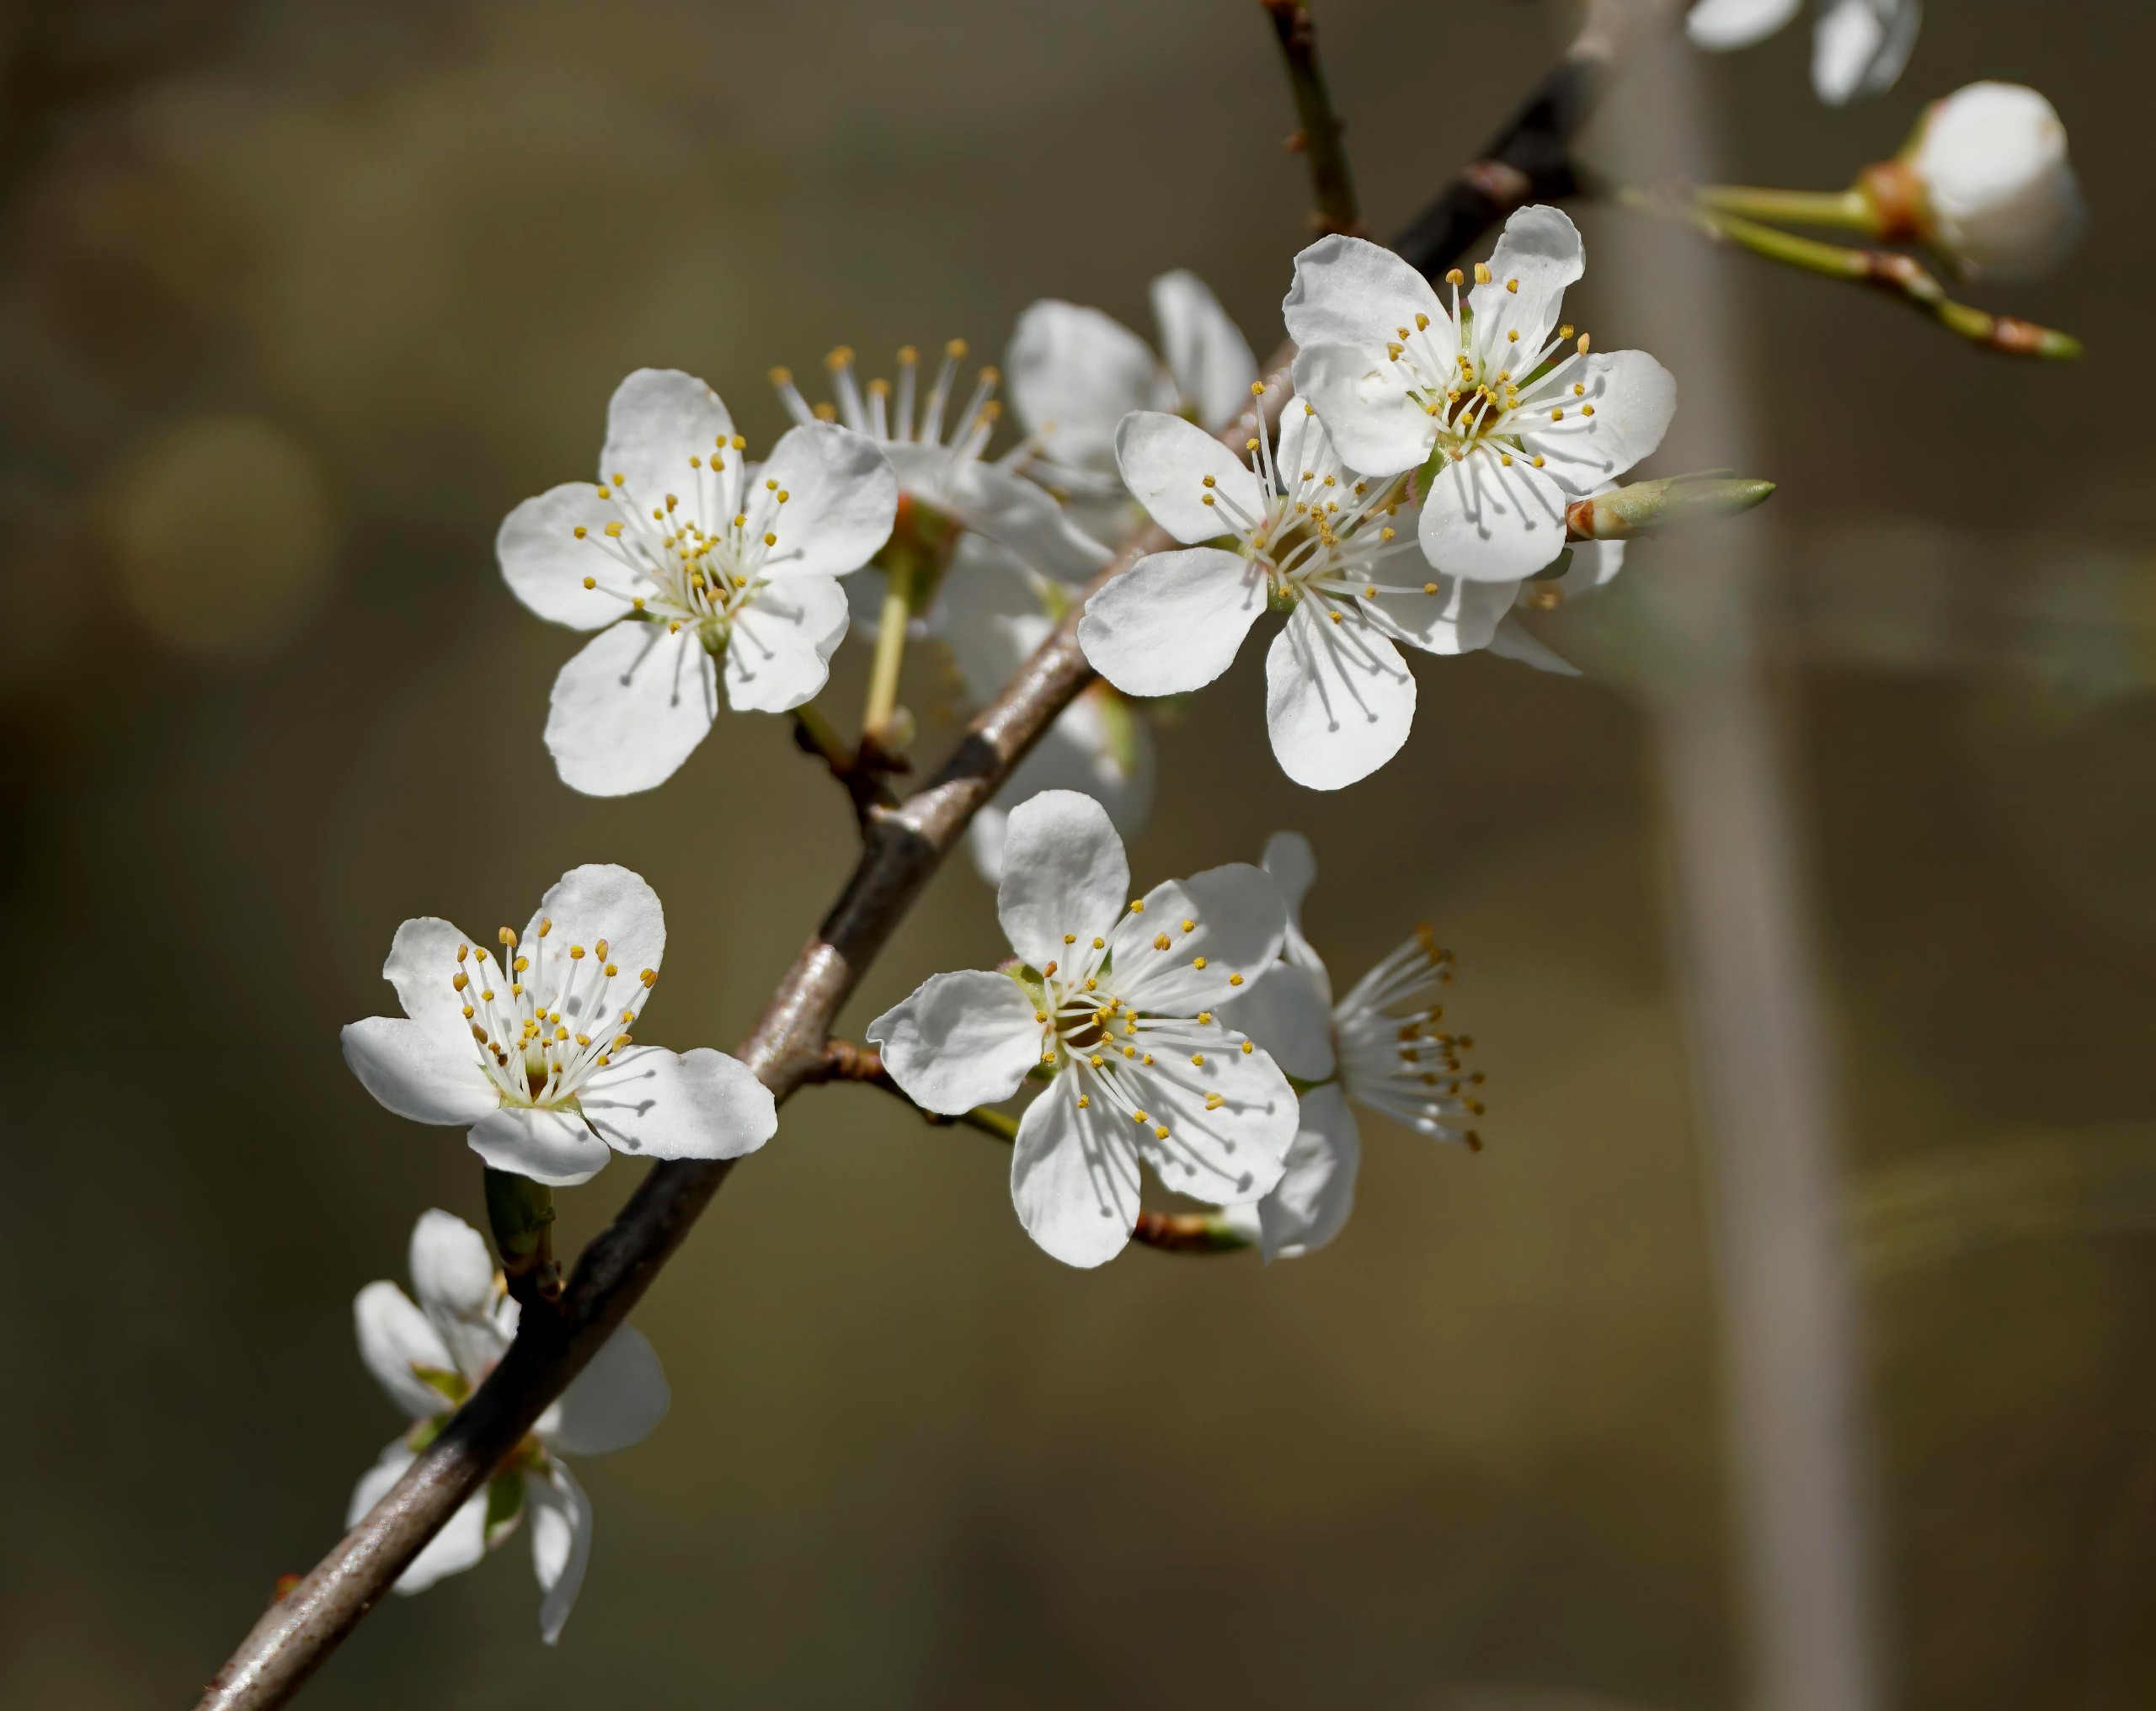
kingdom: Plantae
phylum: Tracheophyta
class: Magnoliopsida
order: Rosales
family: Rosaceae
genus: Prunus
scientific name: Prunus cerasifera
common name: Mirabel
